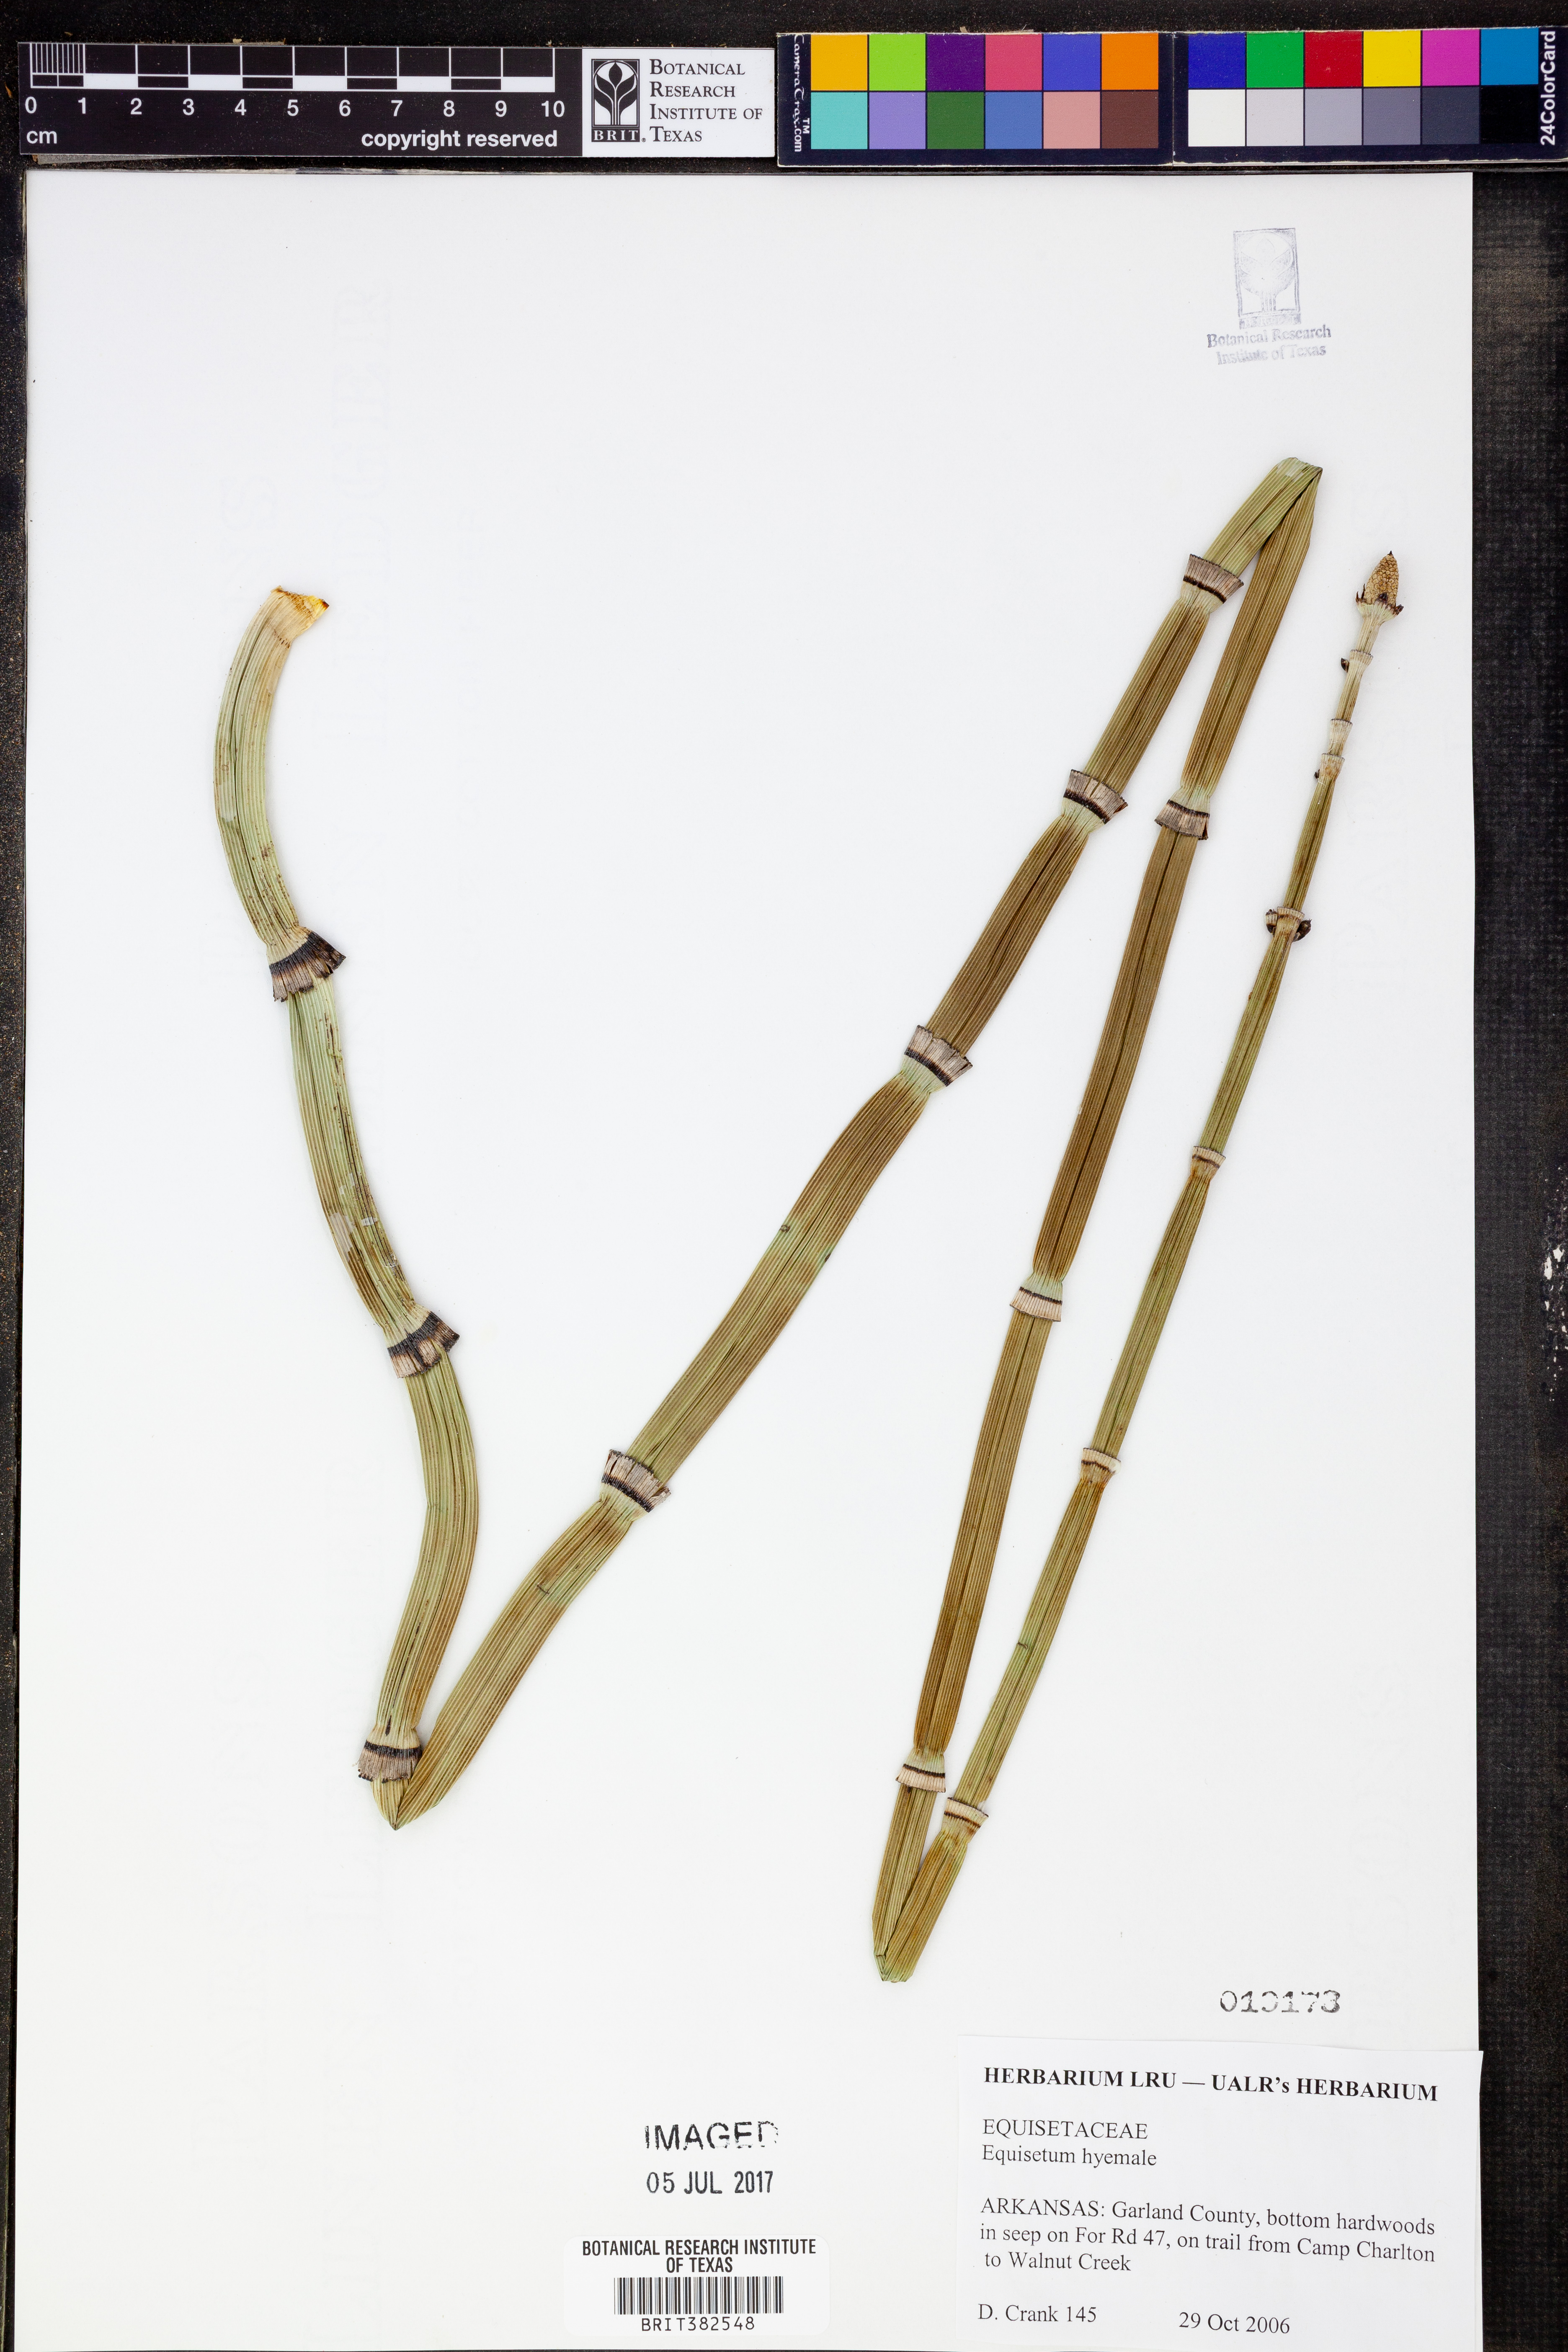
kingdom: Plantae
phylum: Tracheophyta
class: Polypodiopsida
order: Equisetales
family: Equisetaceae
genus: Equisetum
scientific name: Equisetum hyemale
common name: Rough horsetail
